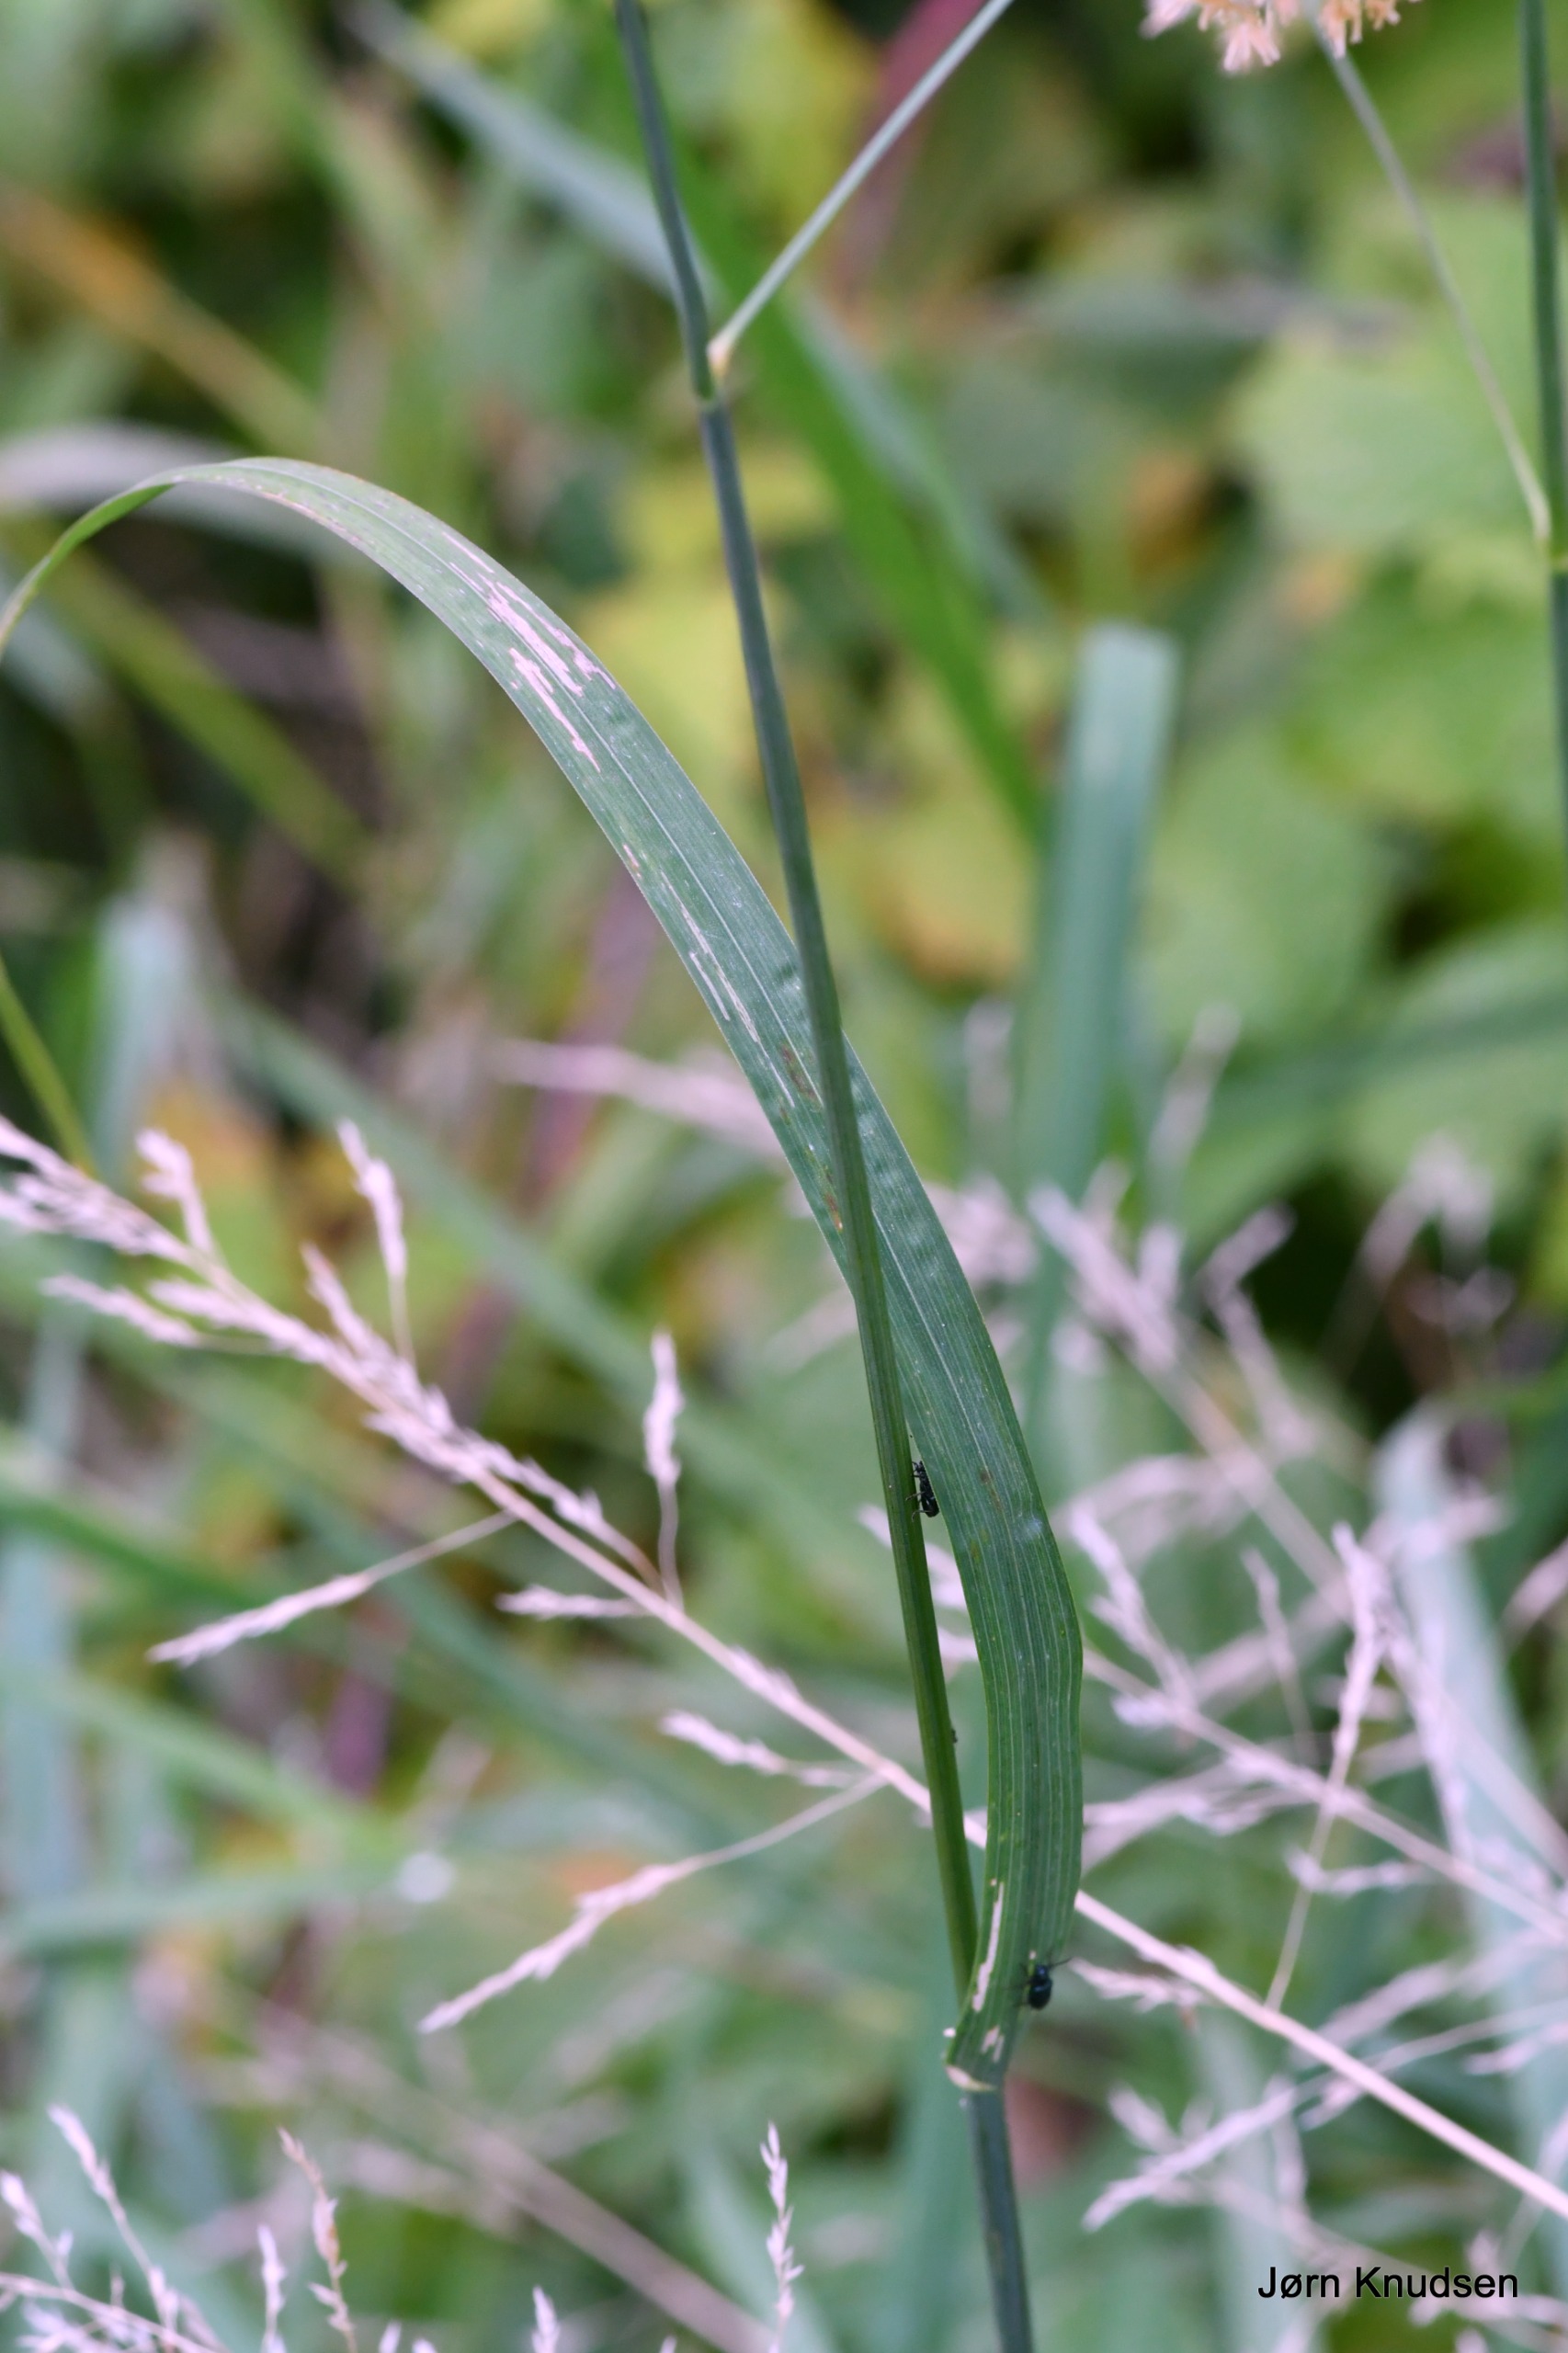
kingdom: Plantae
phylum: Tracheophyta
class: Liliopsida
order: Poales
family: Poaceae
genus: Dactylis
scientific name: Dactylis glomerata
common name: Almindelig hundegræs
